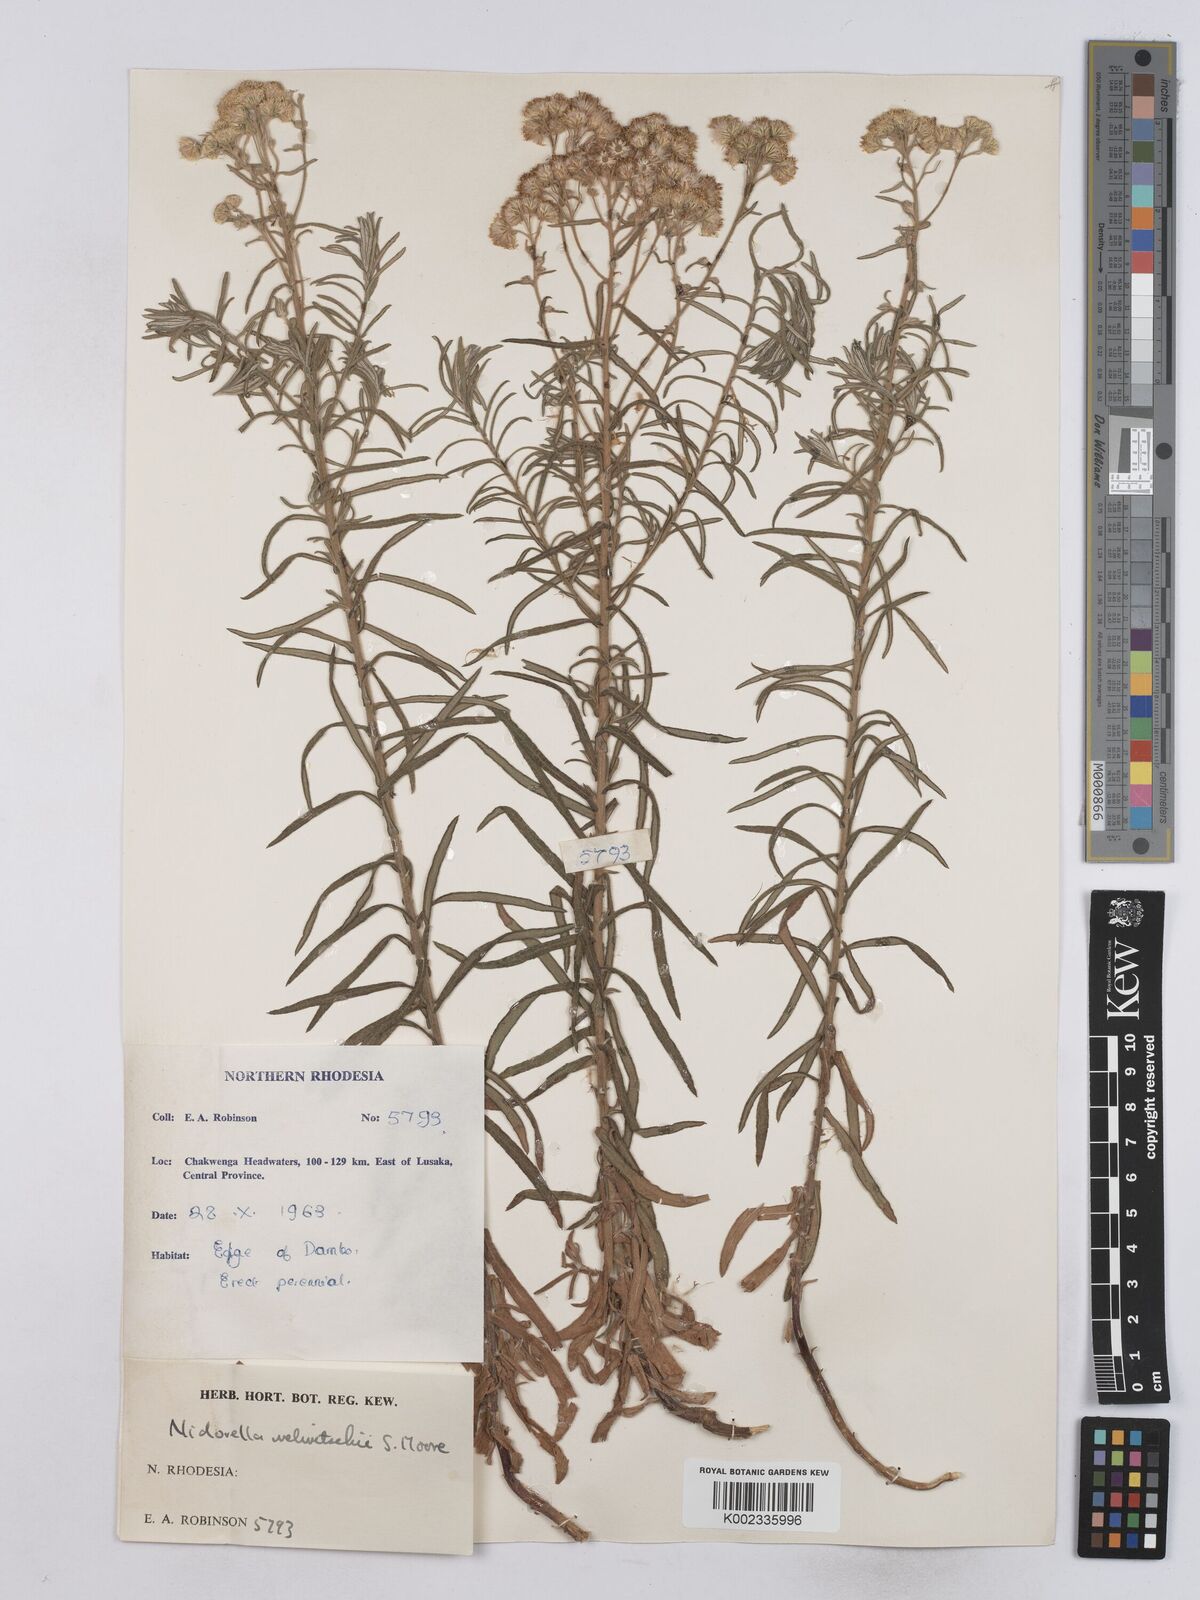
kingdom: Plantae
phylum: Tracheophyta
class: Magnoliopsida
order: Asterales
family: Asteraceae
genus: Nidorella
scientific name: Nidorella welwitschii
